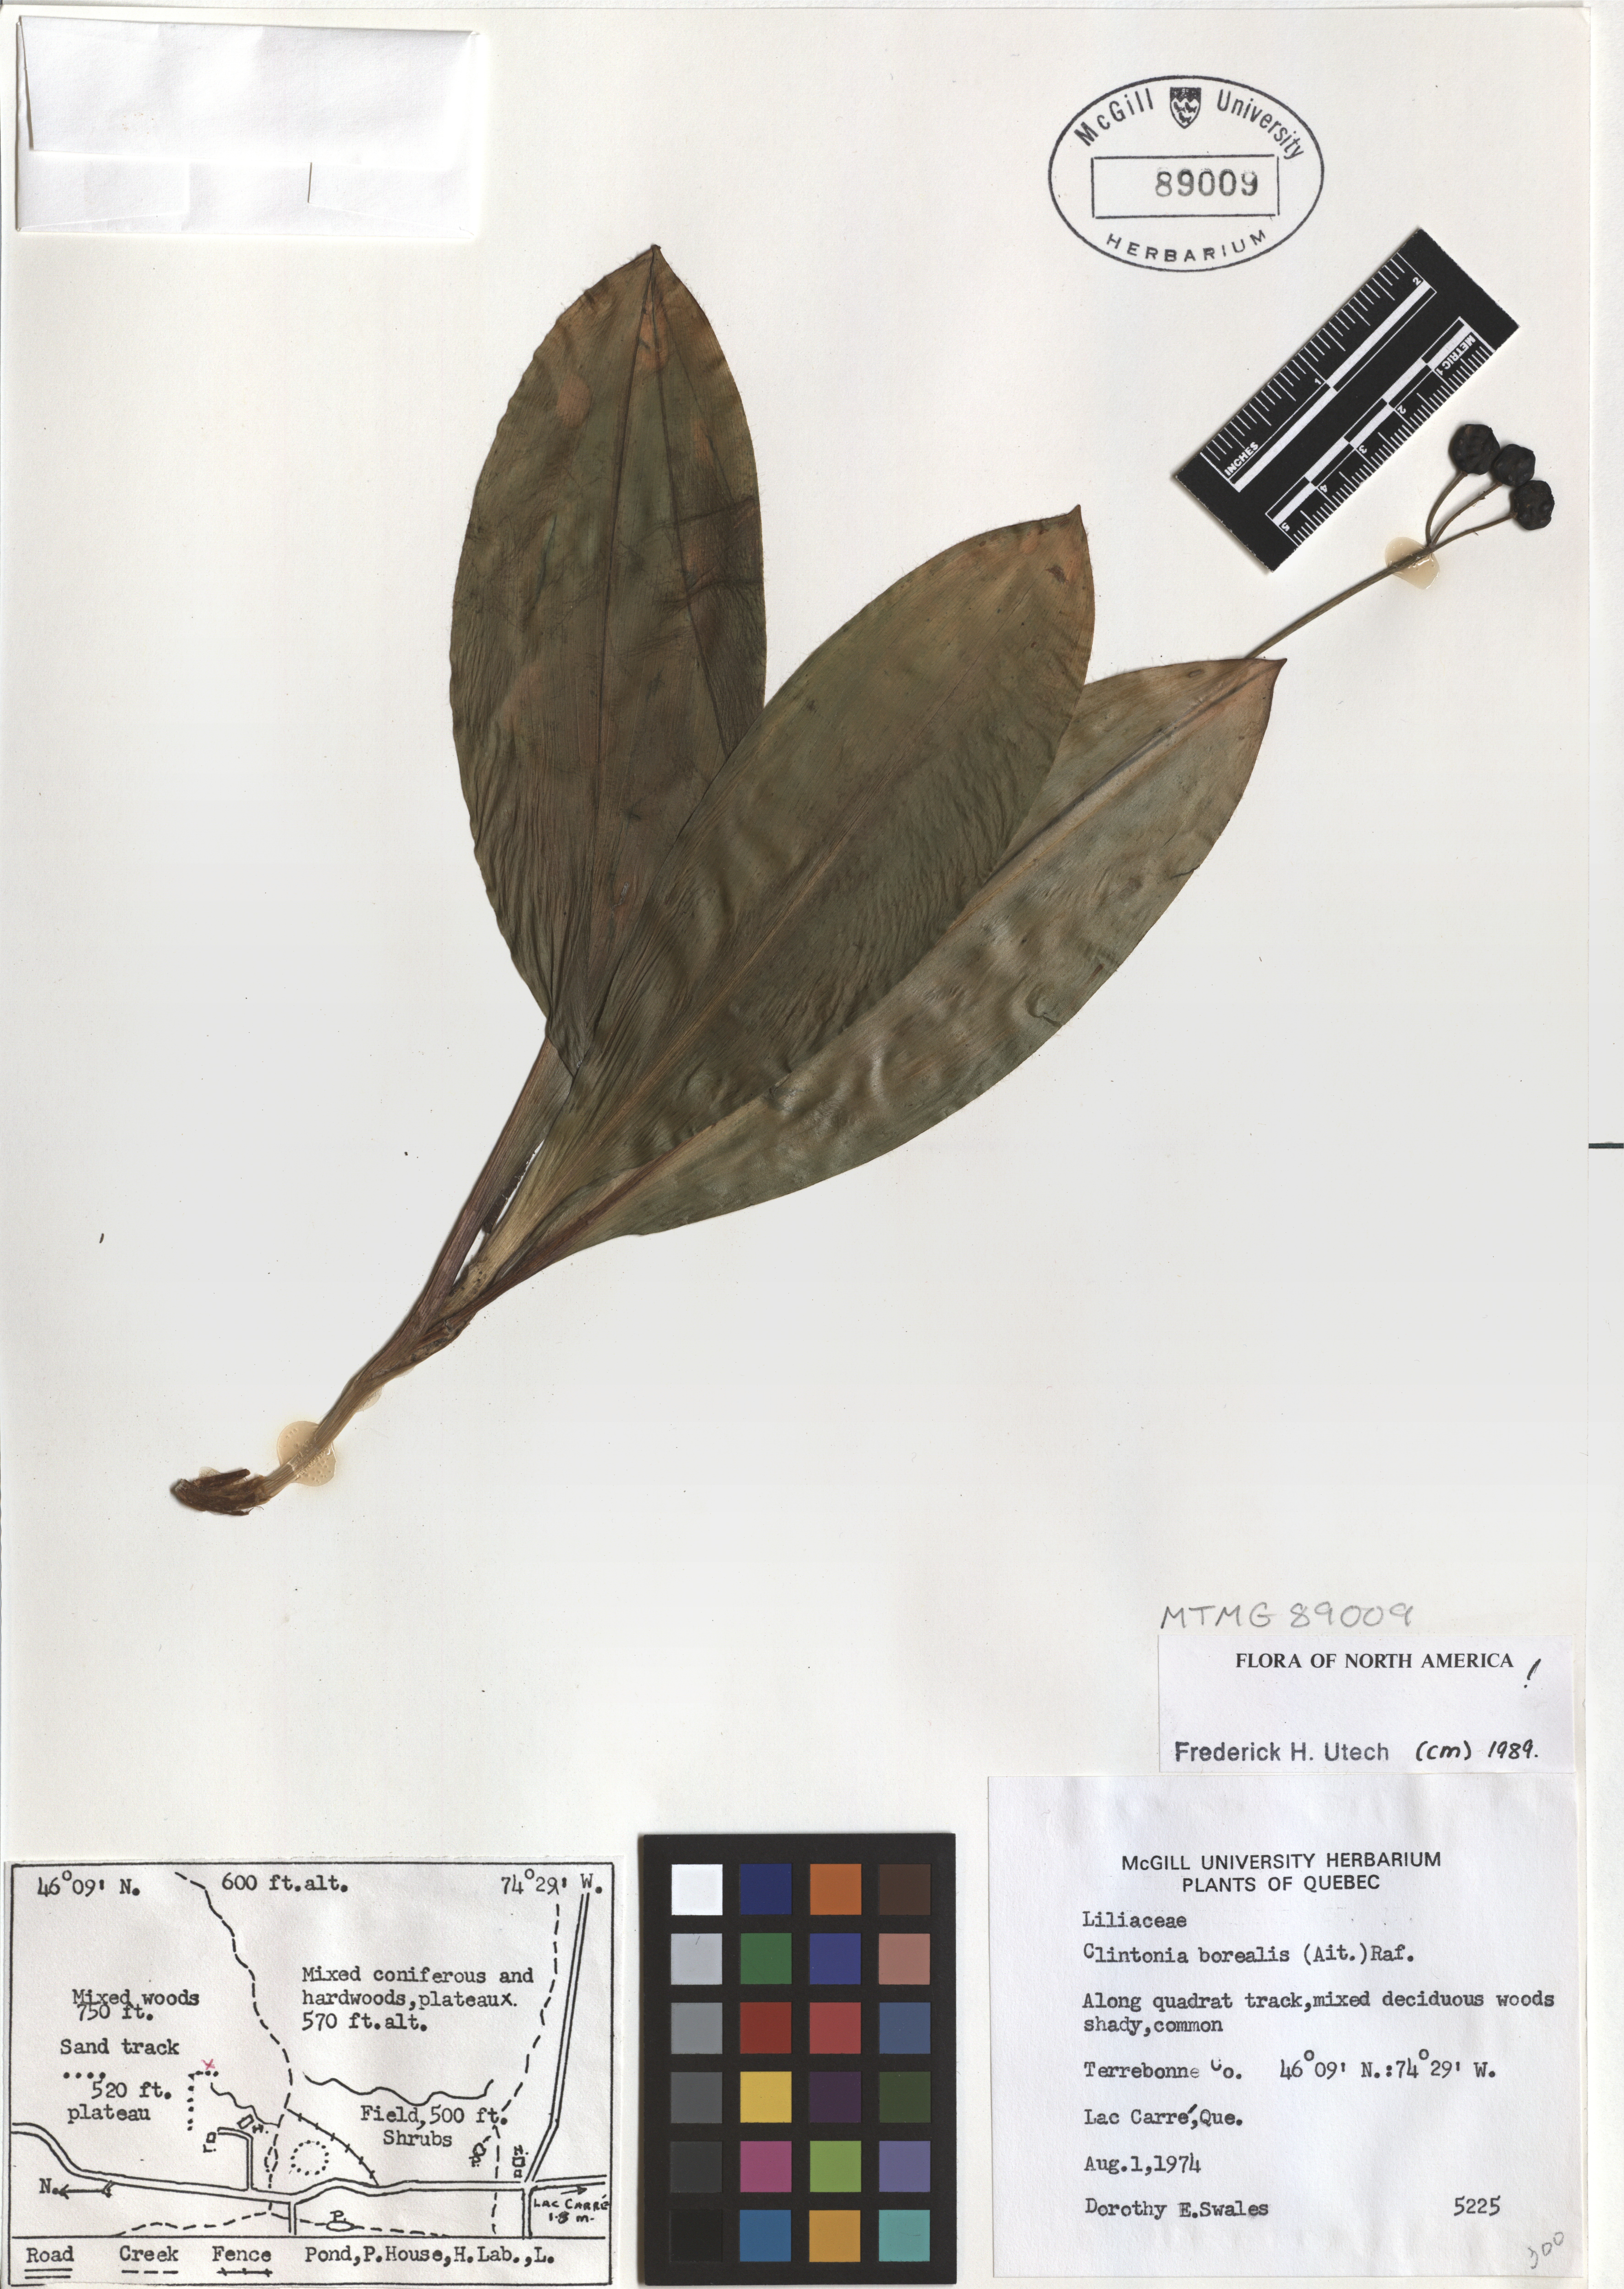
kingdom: Plantae
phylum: Tracheophyta
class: Liliopsida
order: Liliales
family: Liliaceae
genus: Clintonia
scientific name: Clintonia borealis
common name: Yellow clintonia
